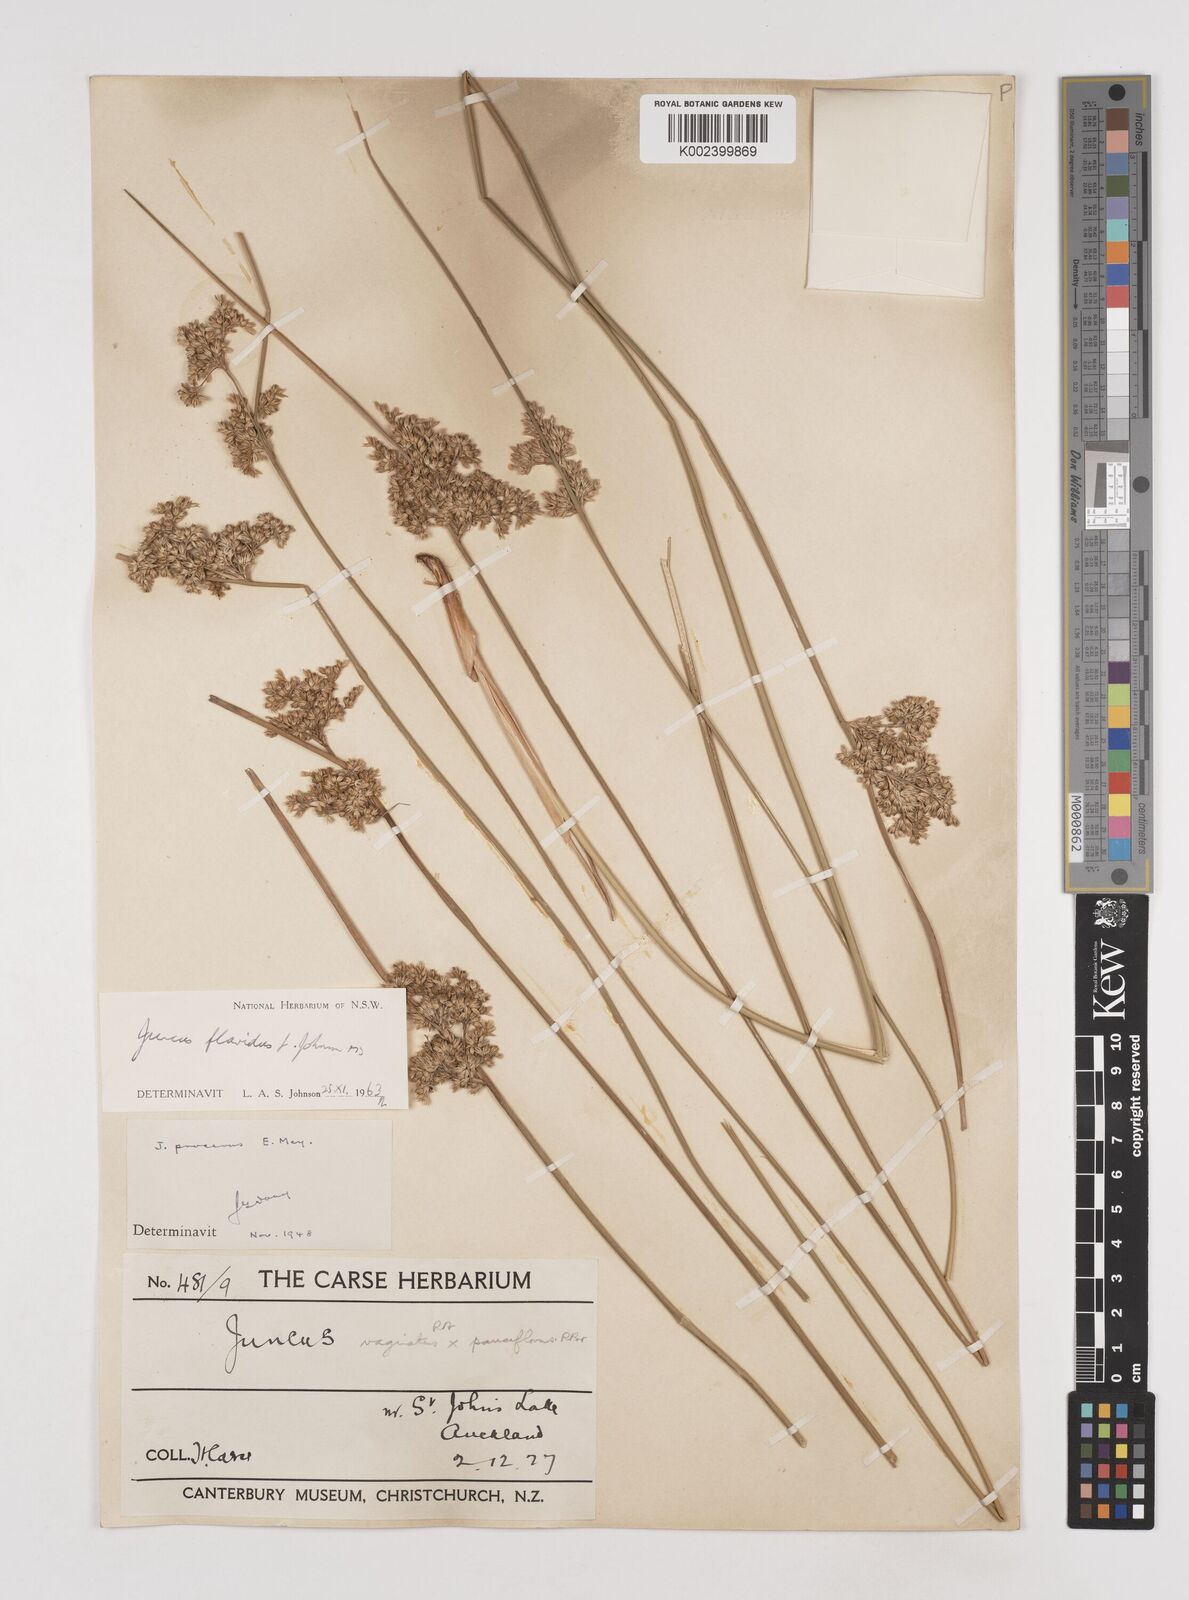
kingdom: Plantae
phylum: Tracheophyta
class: Liliopsida
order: Poales
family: Juncaceae
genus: Juncus
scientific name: Juncus flavidus
